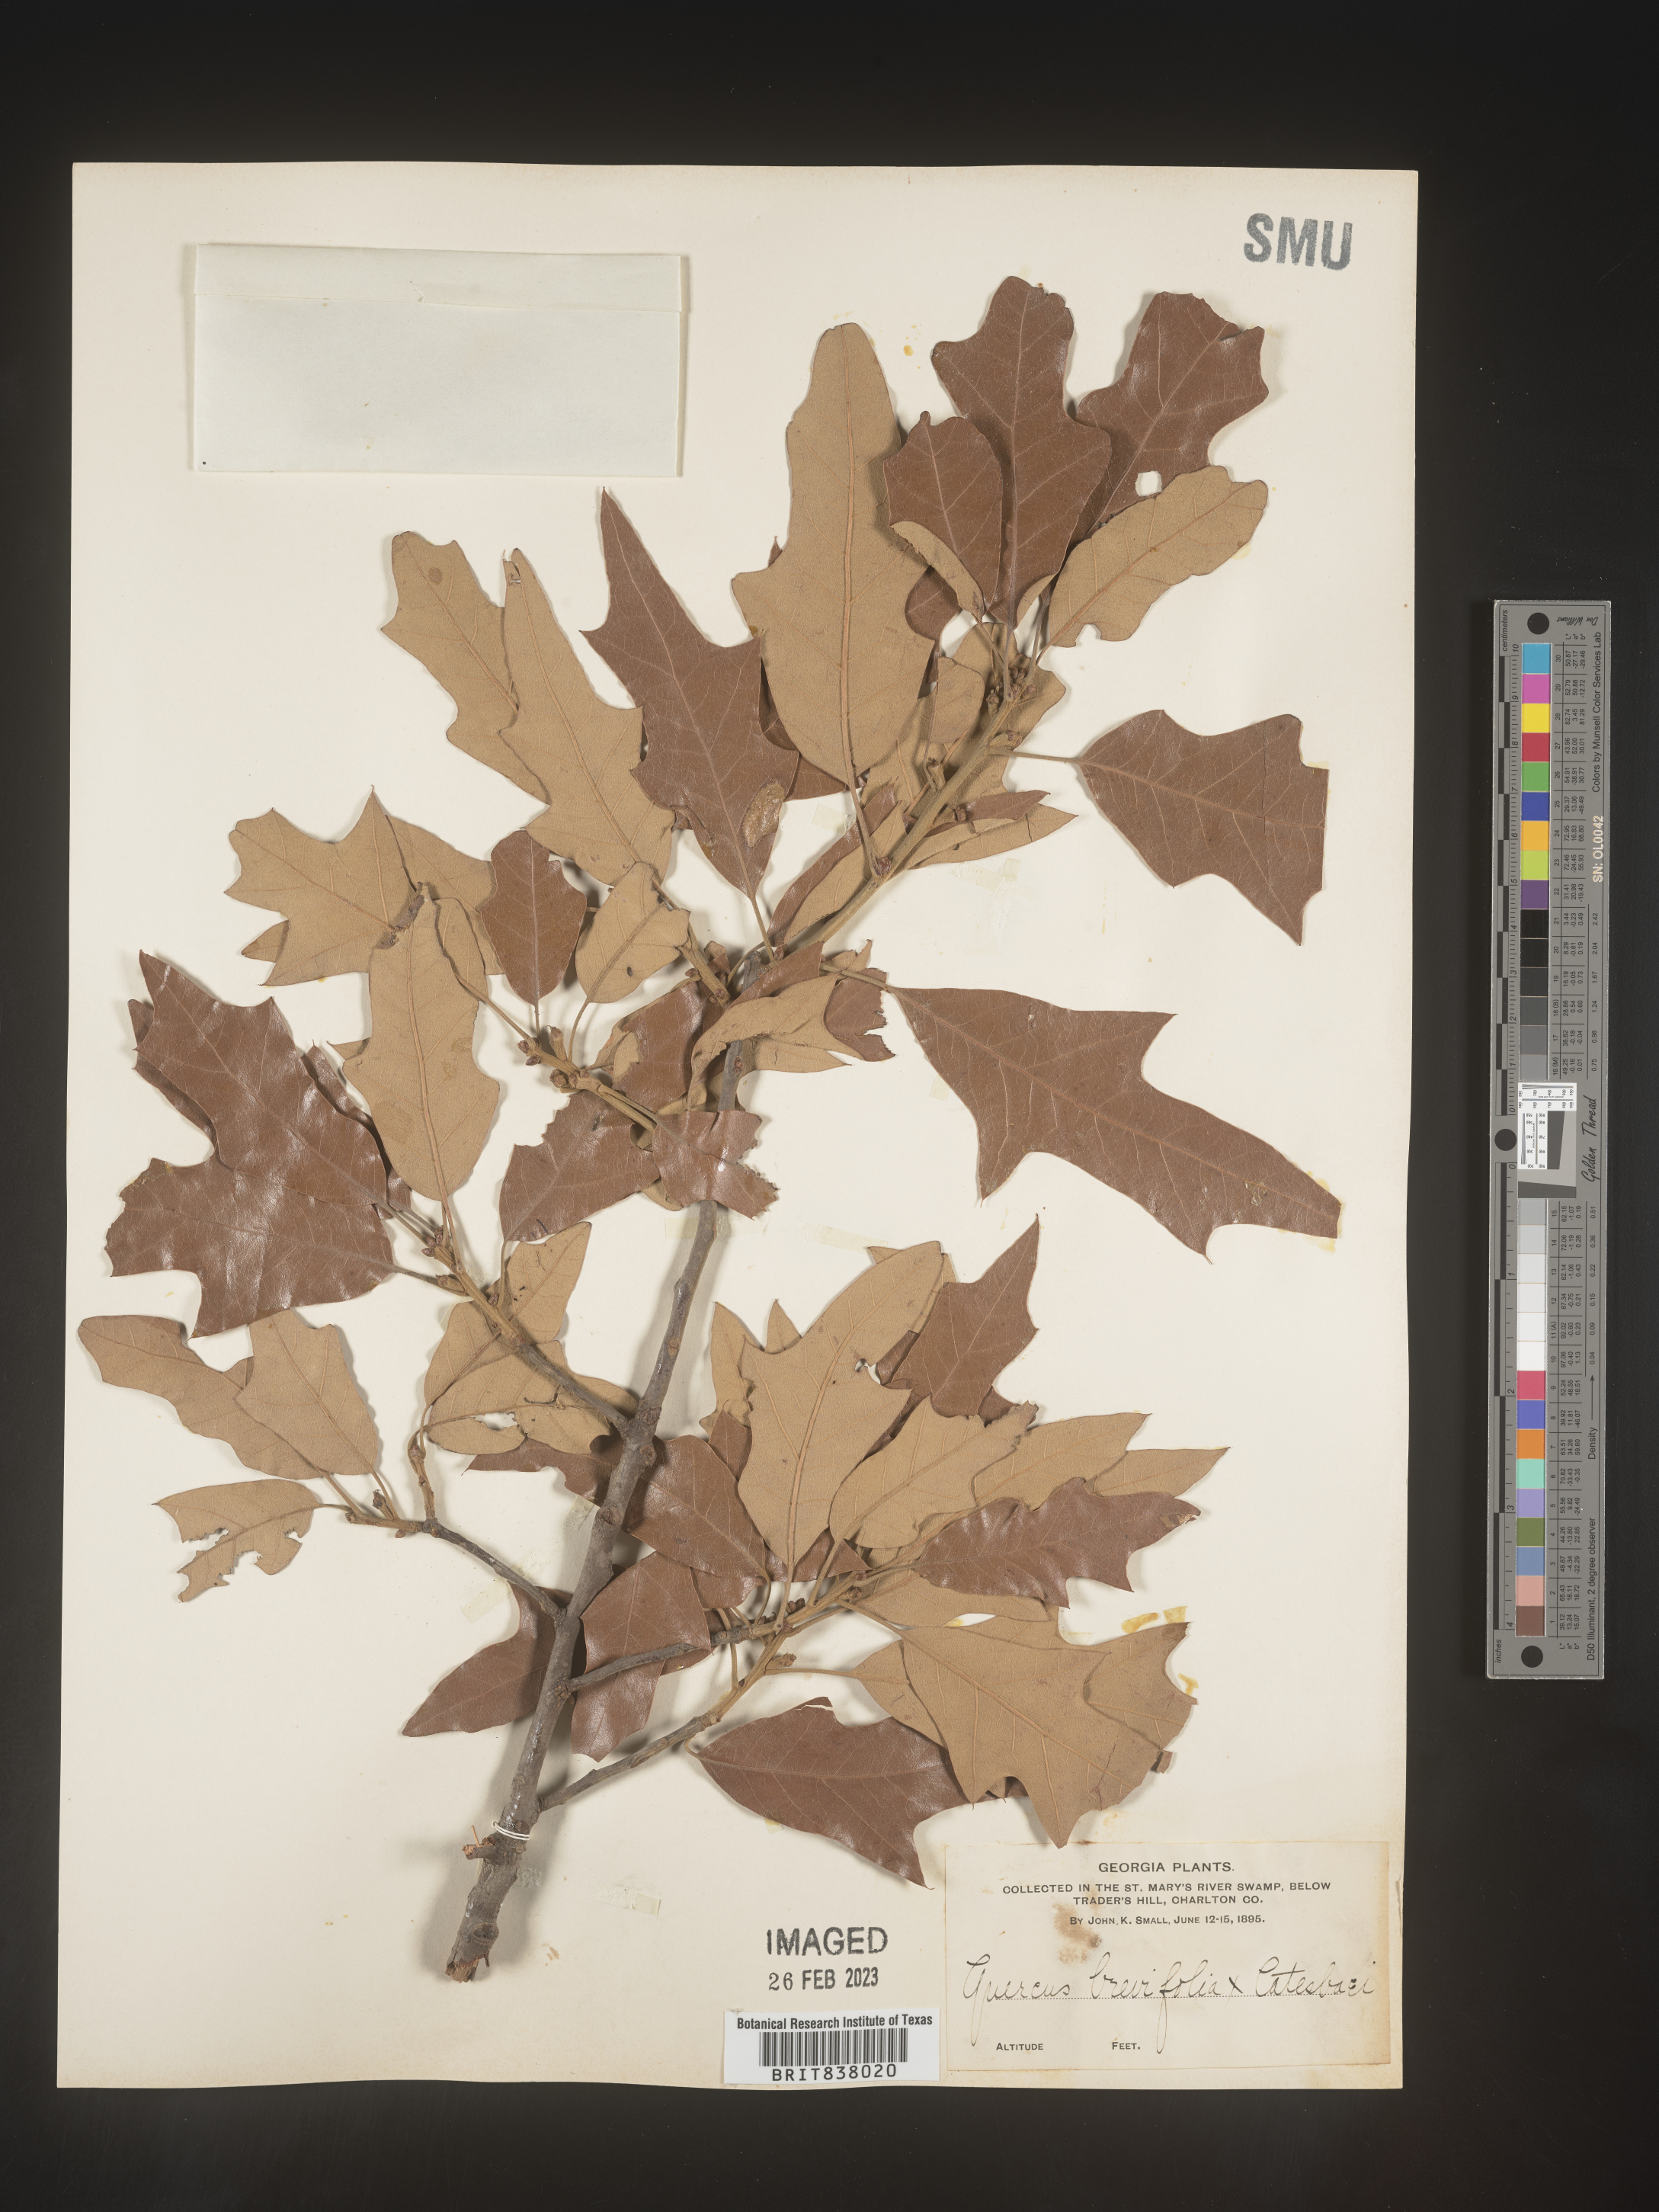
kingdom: Plantae
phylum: Tracheophyta
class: Magnoliopsida
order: Fagales
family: Fagaceae
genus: Quercus
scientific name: Quercus
